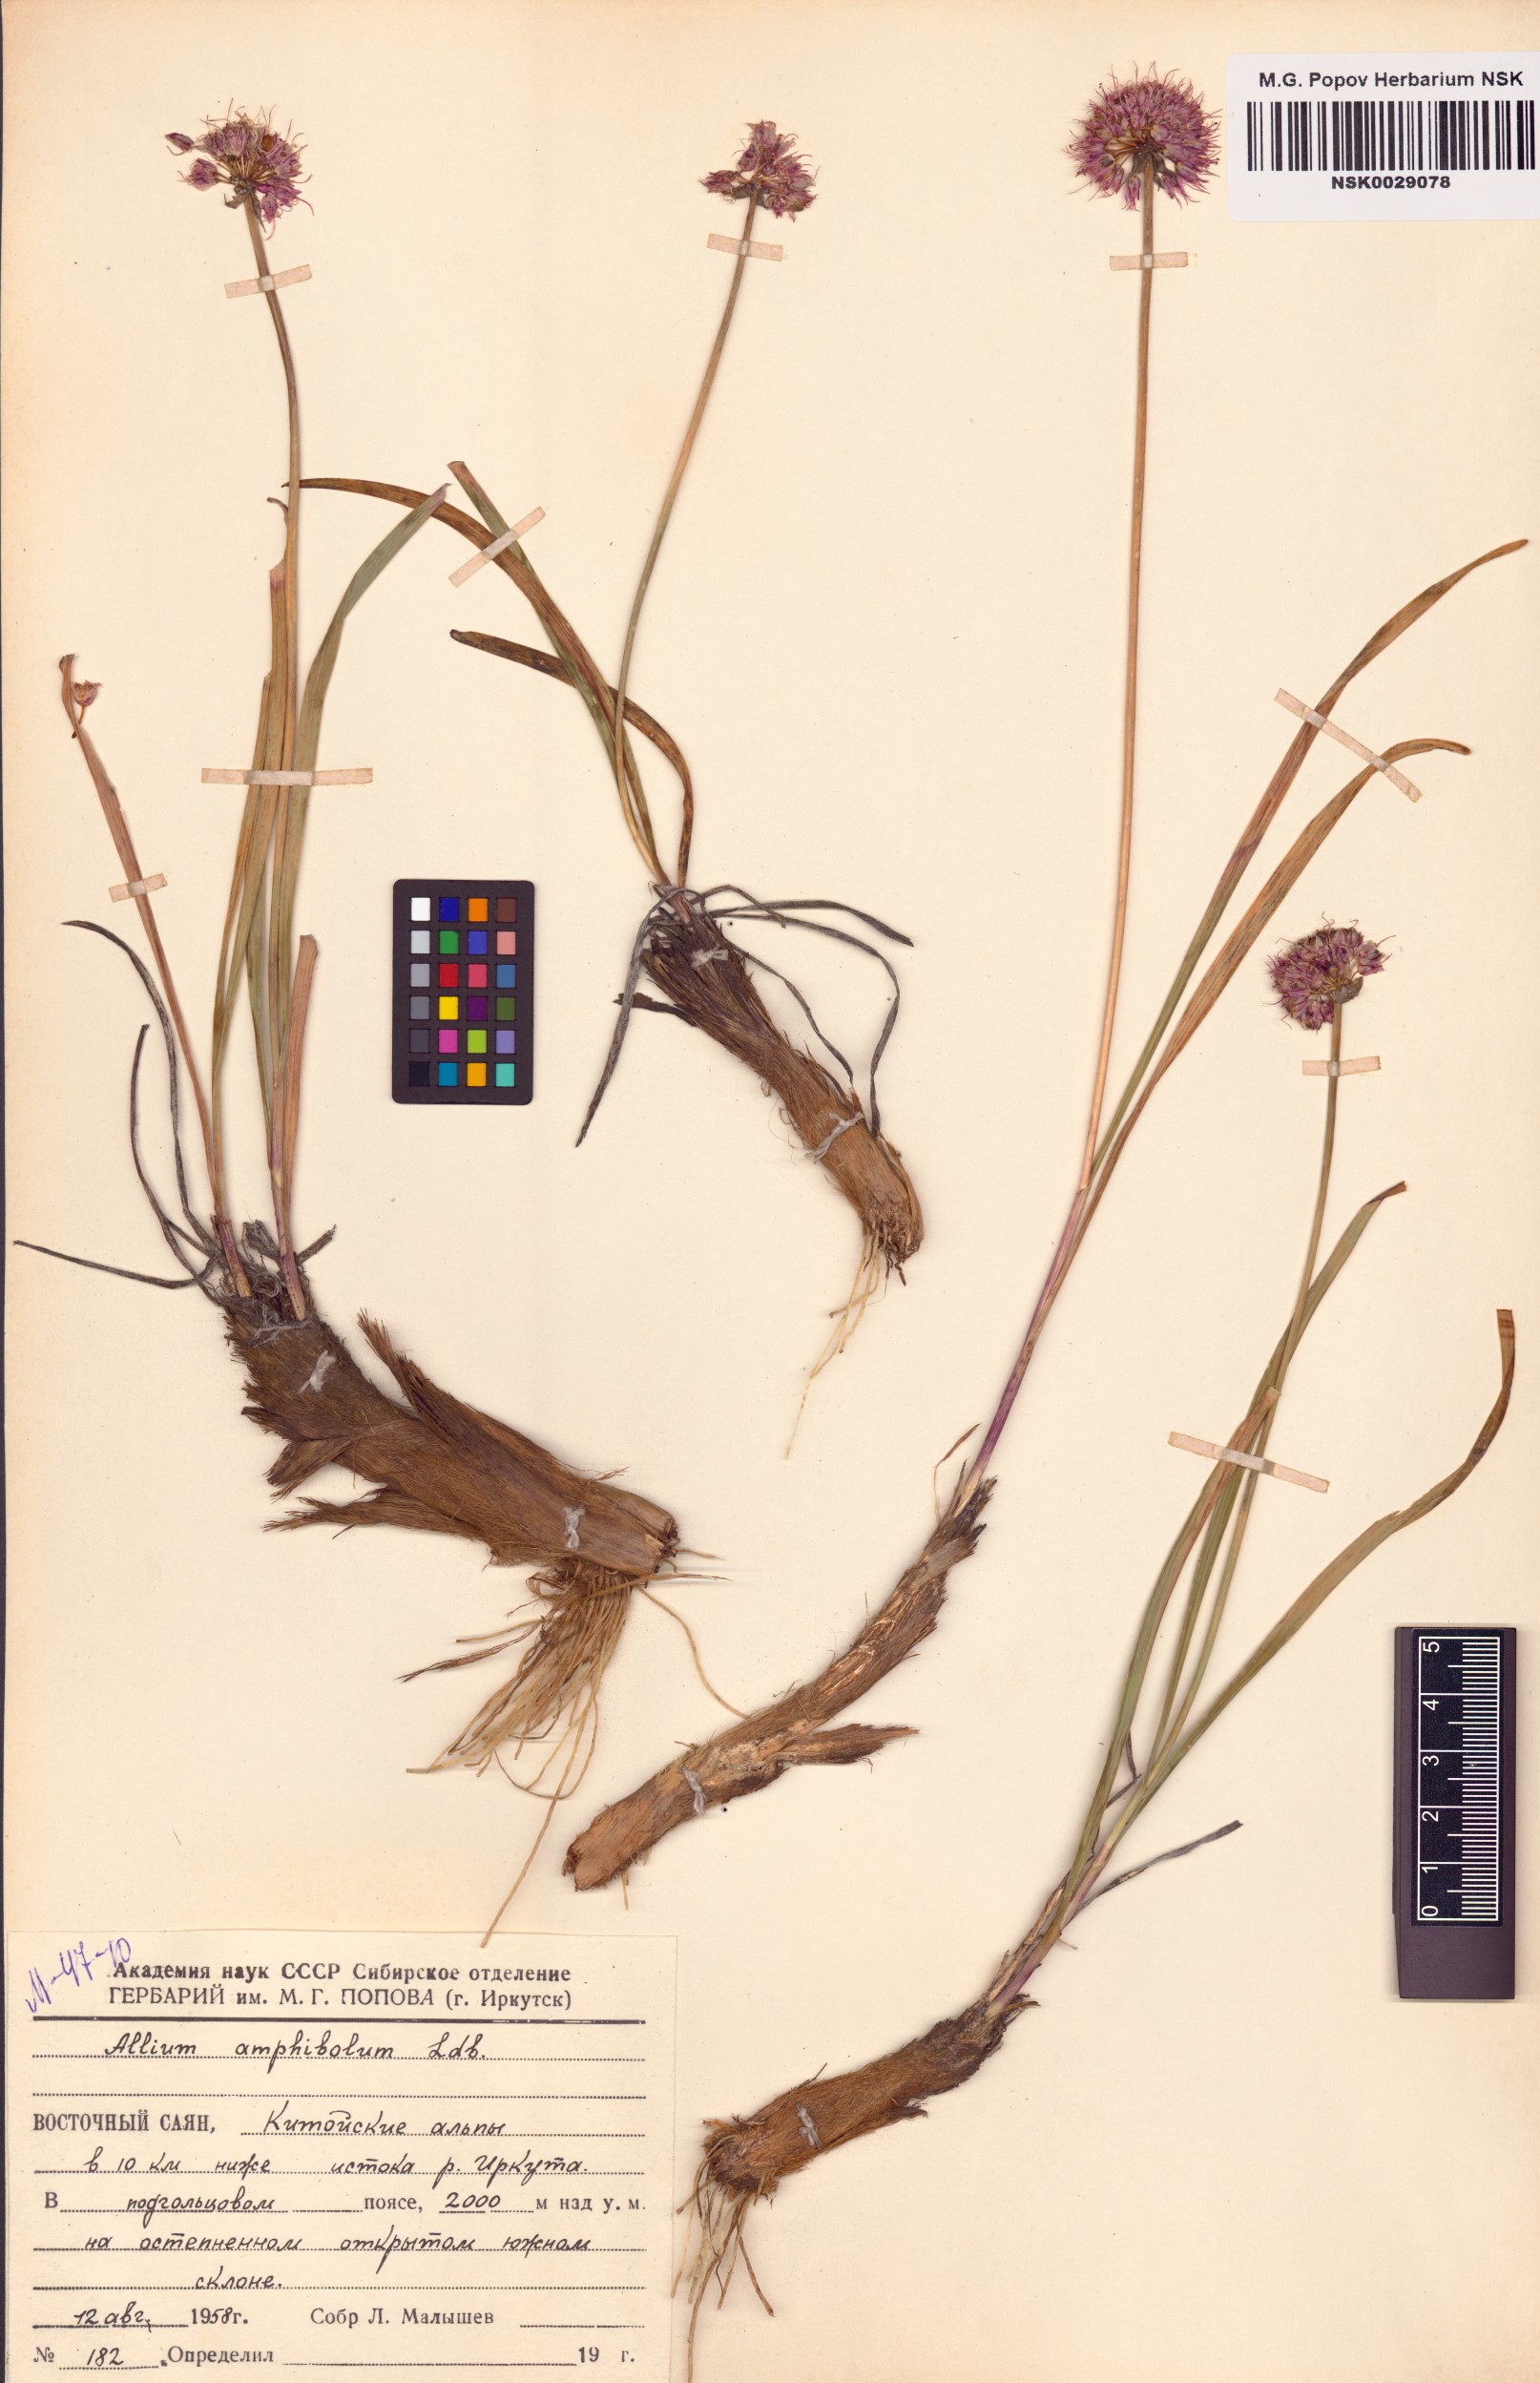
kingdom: Plantae
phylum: Tracheophyta
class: Liliopsida
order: Asparagales
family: Amaryllidaceae
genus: Allium
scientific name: Allium amphibolum
